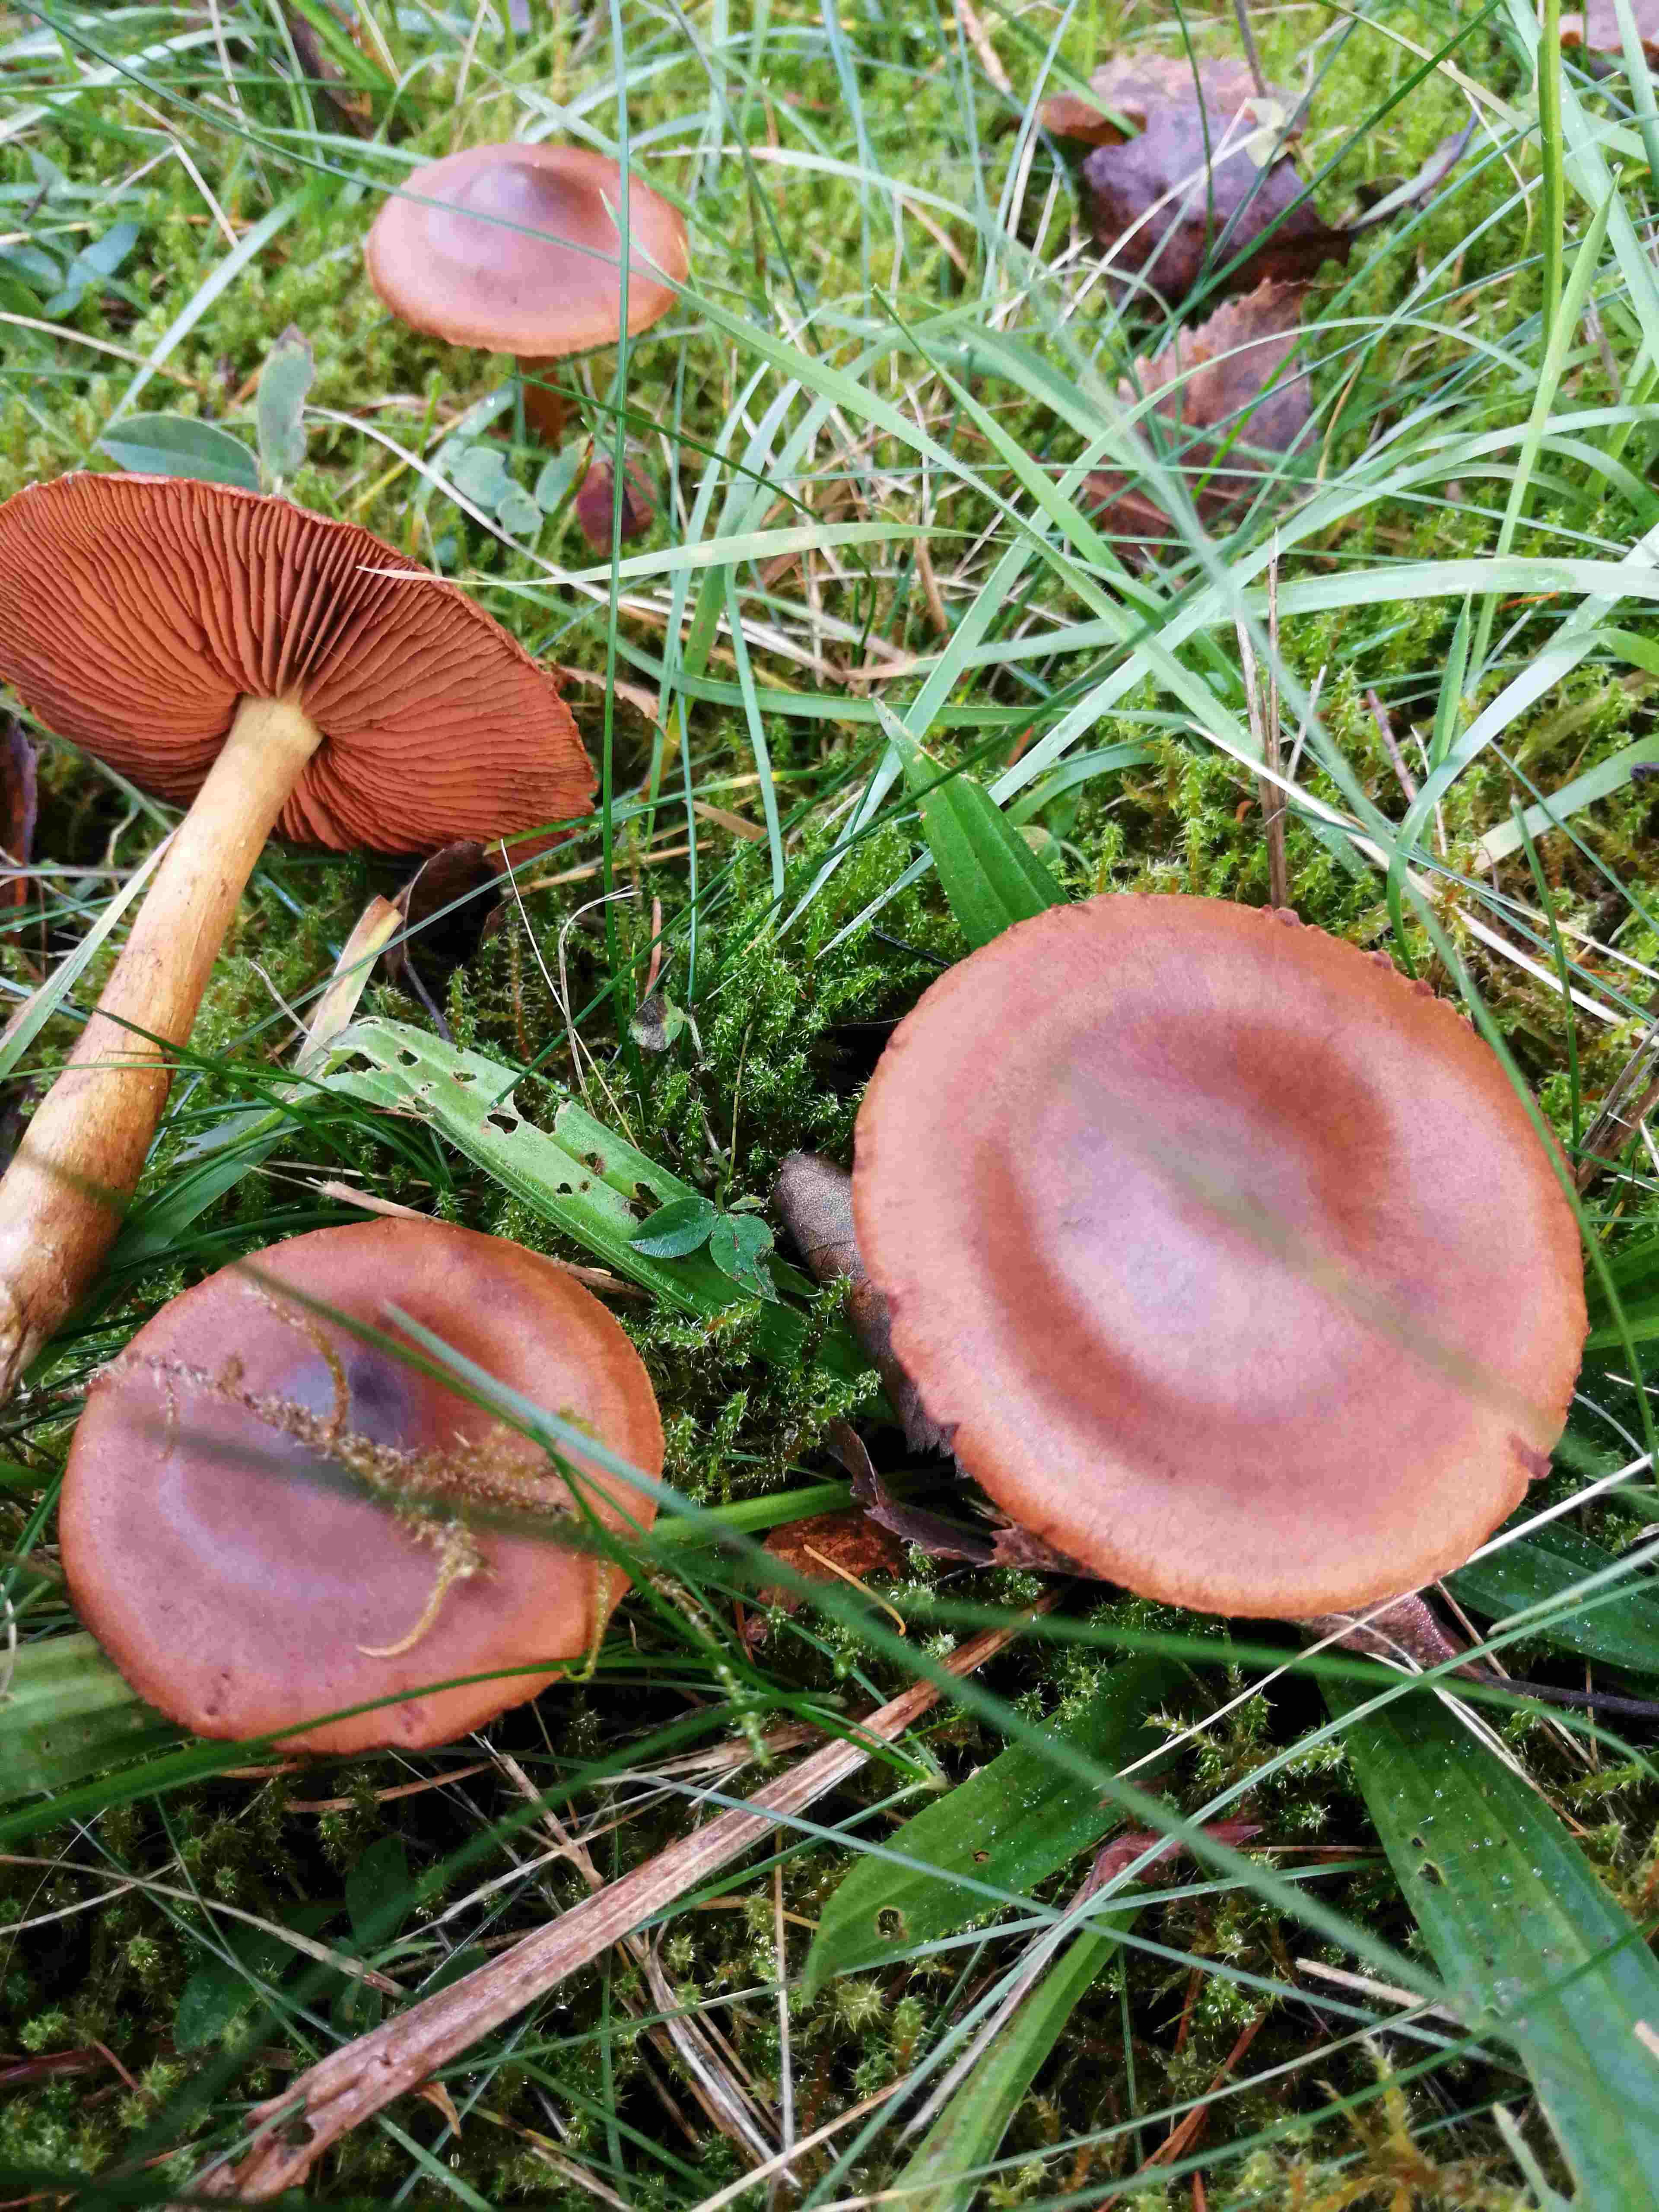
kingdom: Fungi
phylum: Basidiomycota
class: Agaricomycetes
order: Agaricales
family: Cortinariaceae
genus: Cortinarius
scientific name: Cortinarius
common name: cinnoberbladet slørhat
